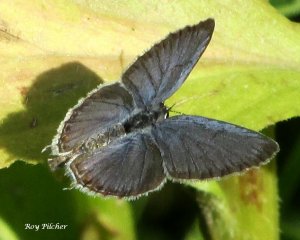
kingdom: Animalia
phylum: Arthropoda
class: Insecta
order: Lepidoptera
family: Lycaenidae
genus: Elkalyce
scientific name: Elkalyce comyntas
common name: Eastern Tailed-Blue
